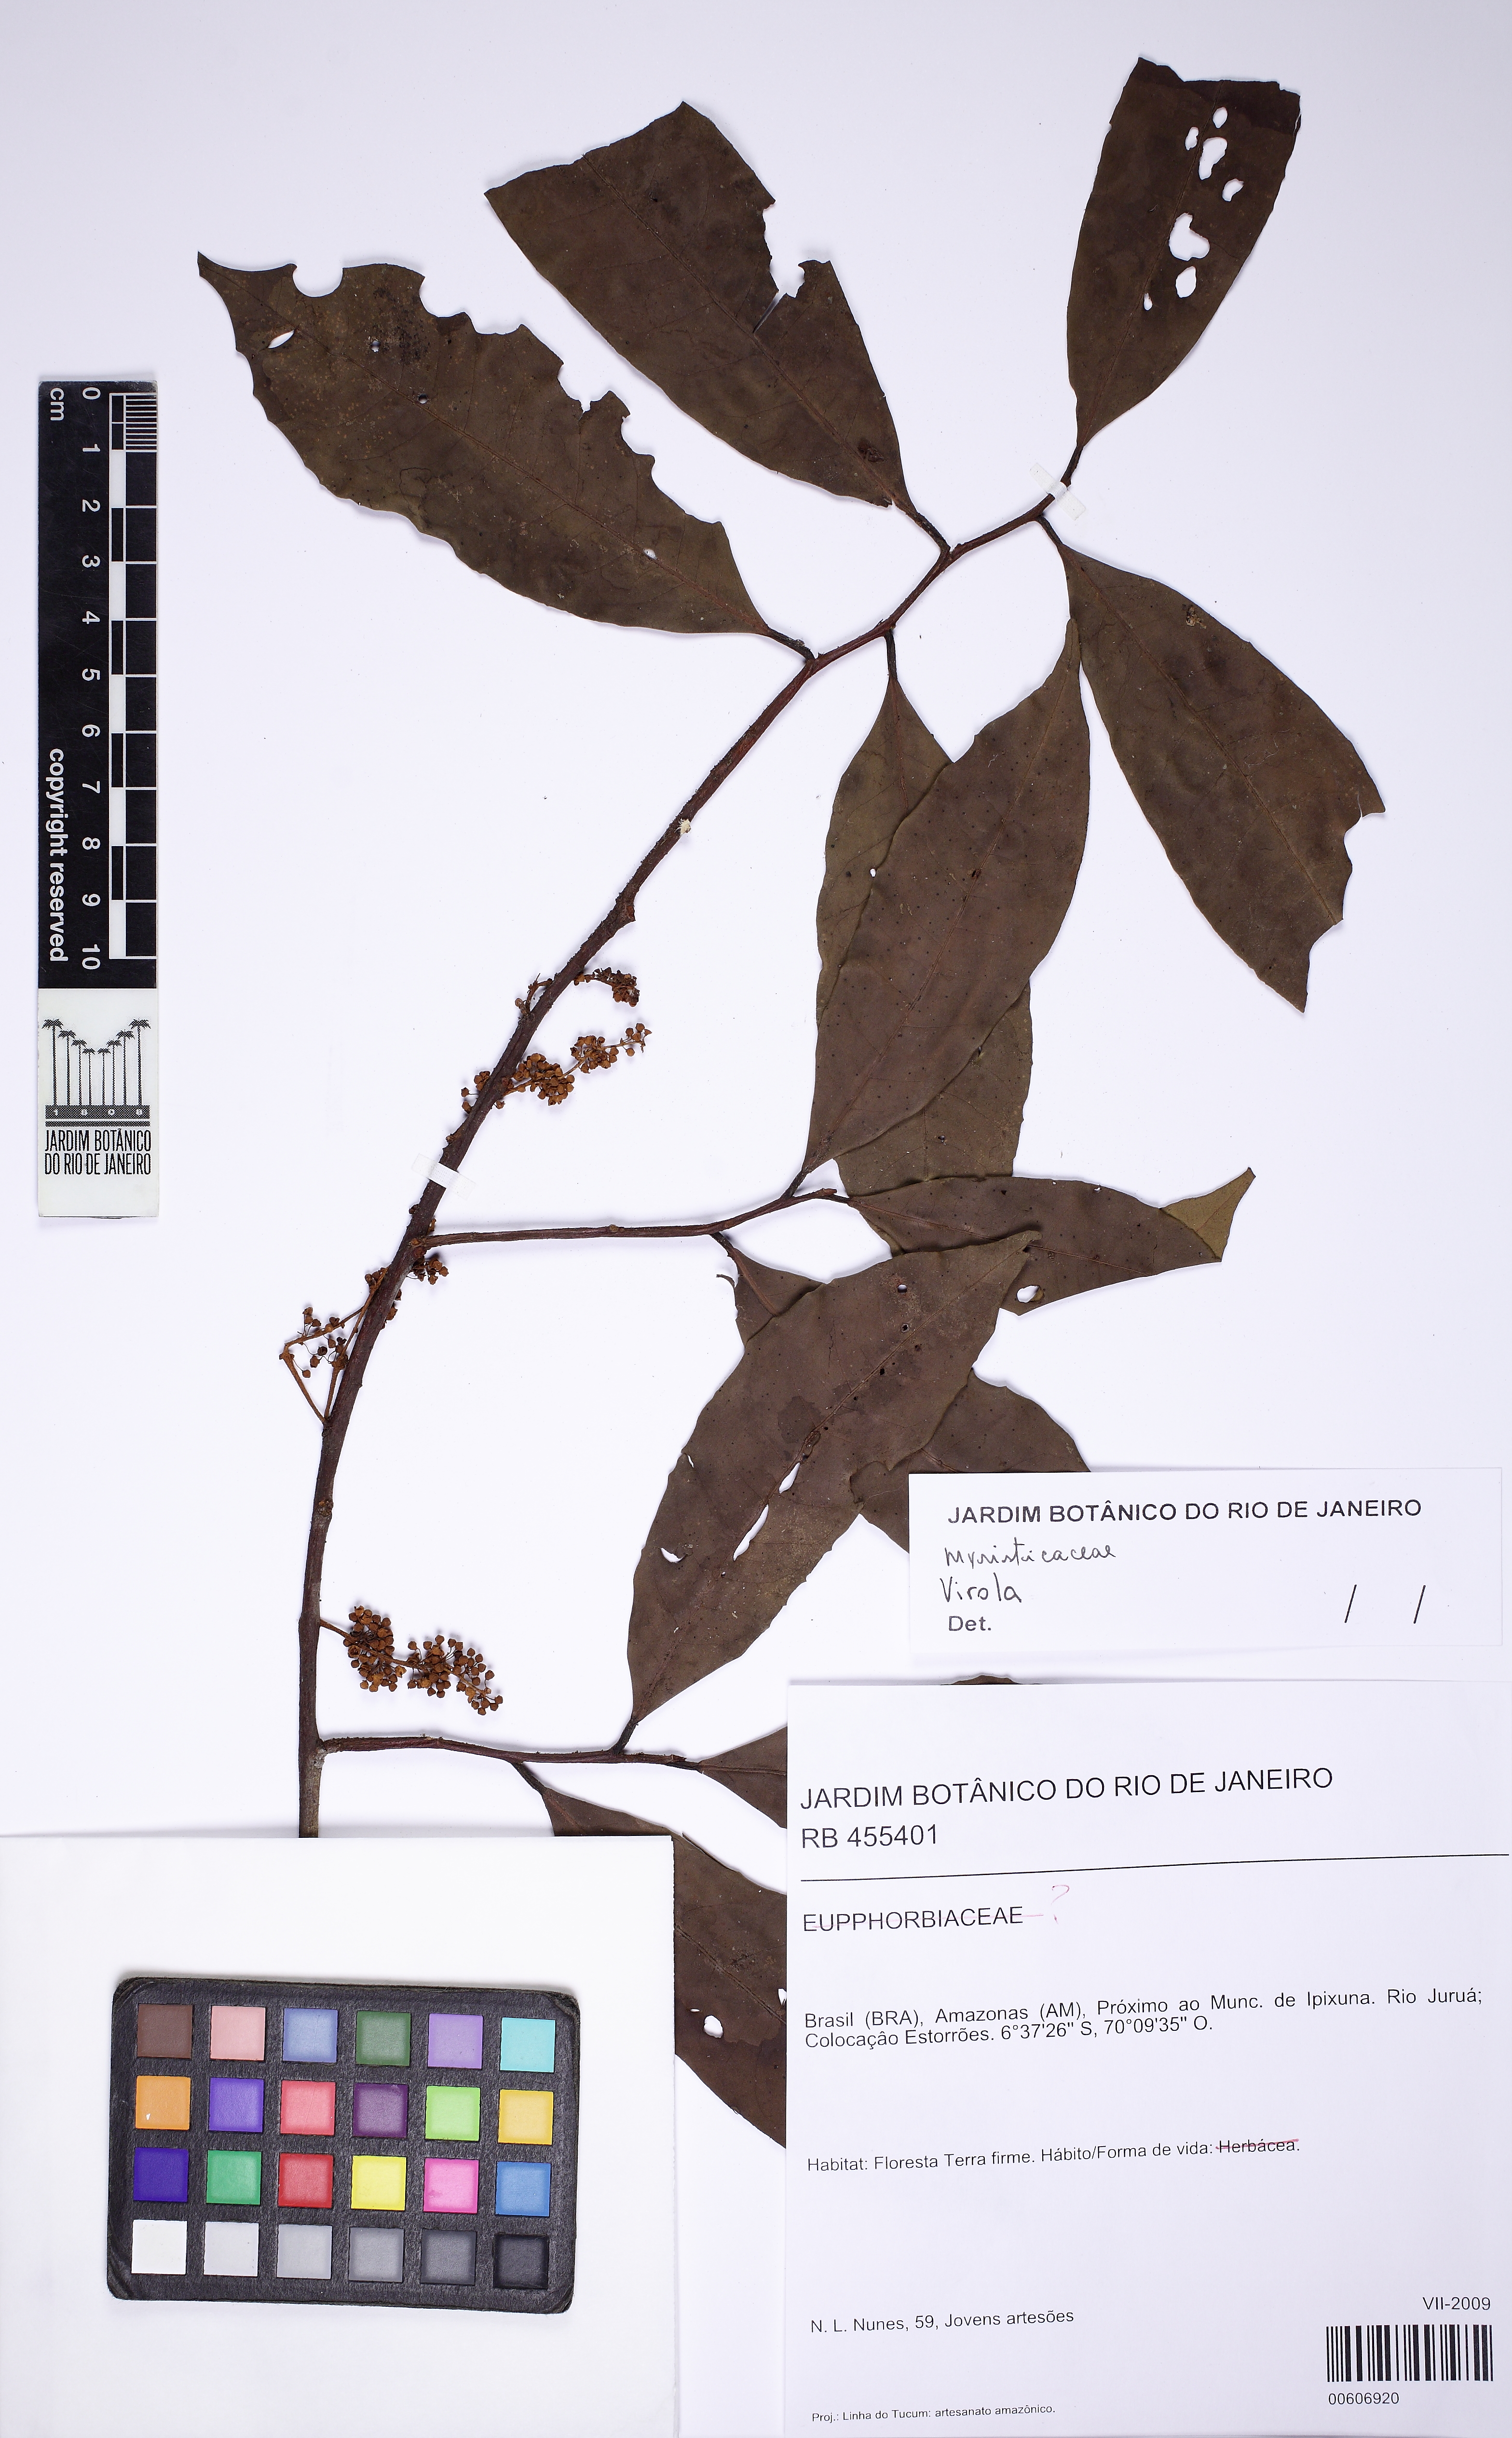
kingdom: Plantae
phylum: Tracheophyta
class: Magnoliopsida
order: Magnoliales
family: Myristicaceae
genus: Virola
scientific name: Virola
